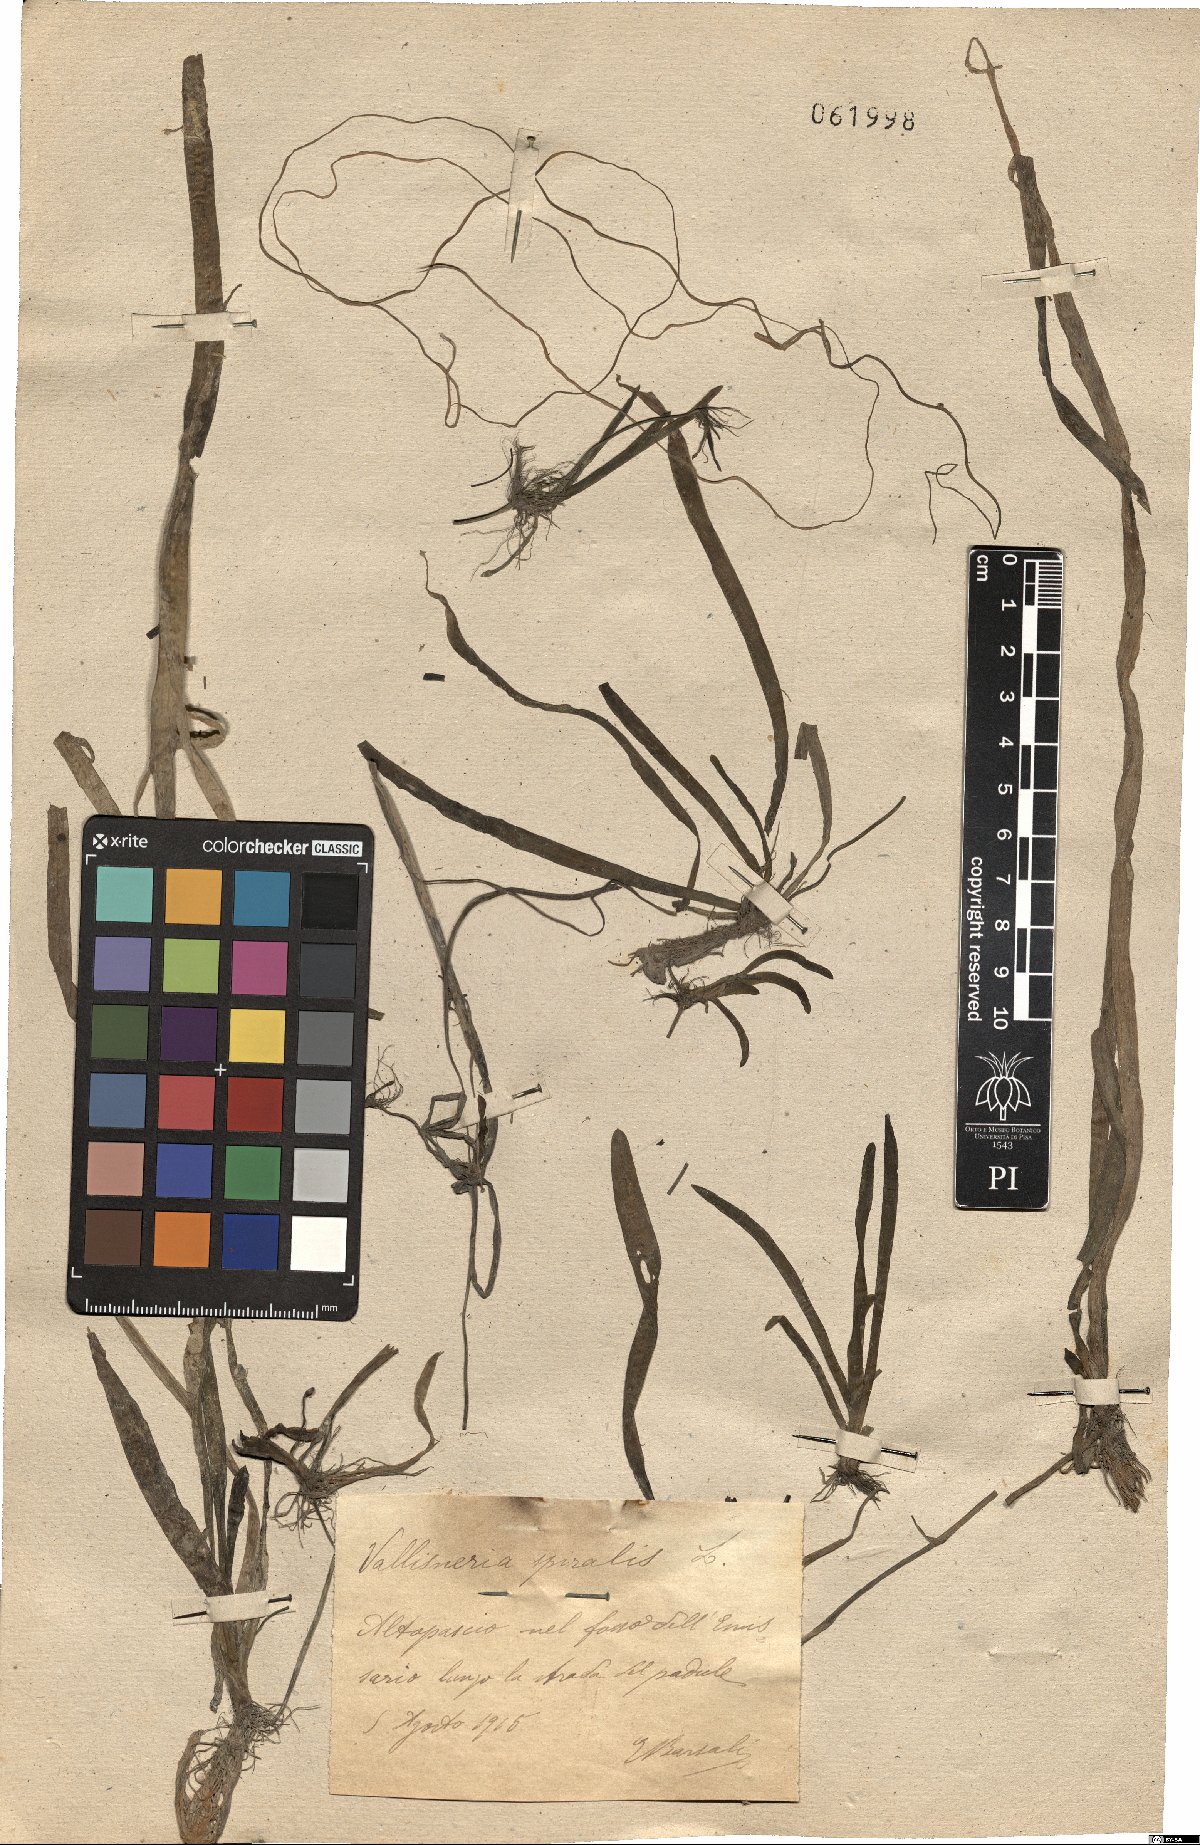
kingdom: Plantae
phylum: Tracheophyta
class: Liliopsida
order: Alismatales
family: Hydrocharitaceae
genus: Vallisneria
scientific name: Vallisneria spiralis
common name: Tapegrass
